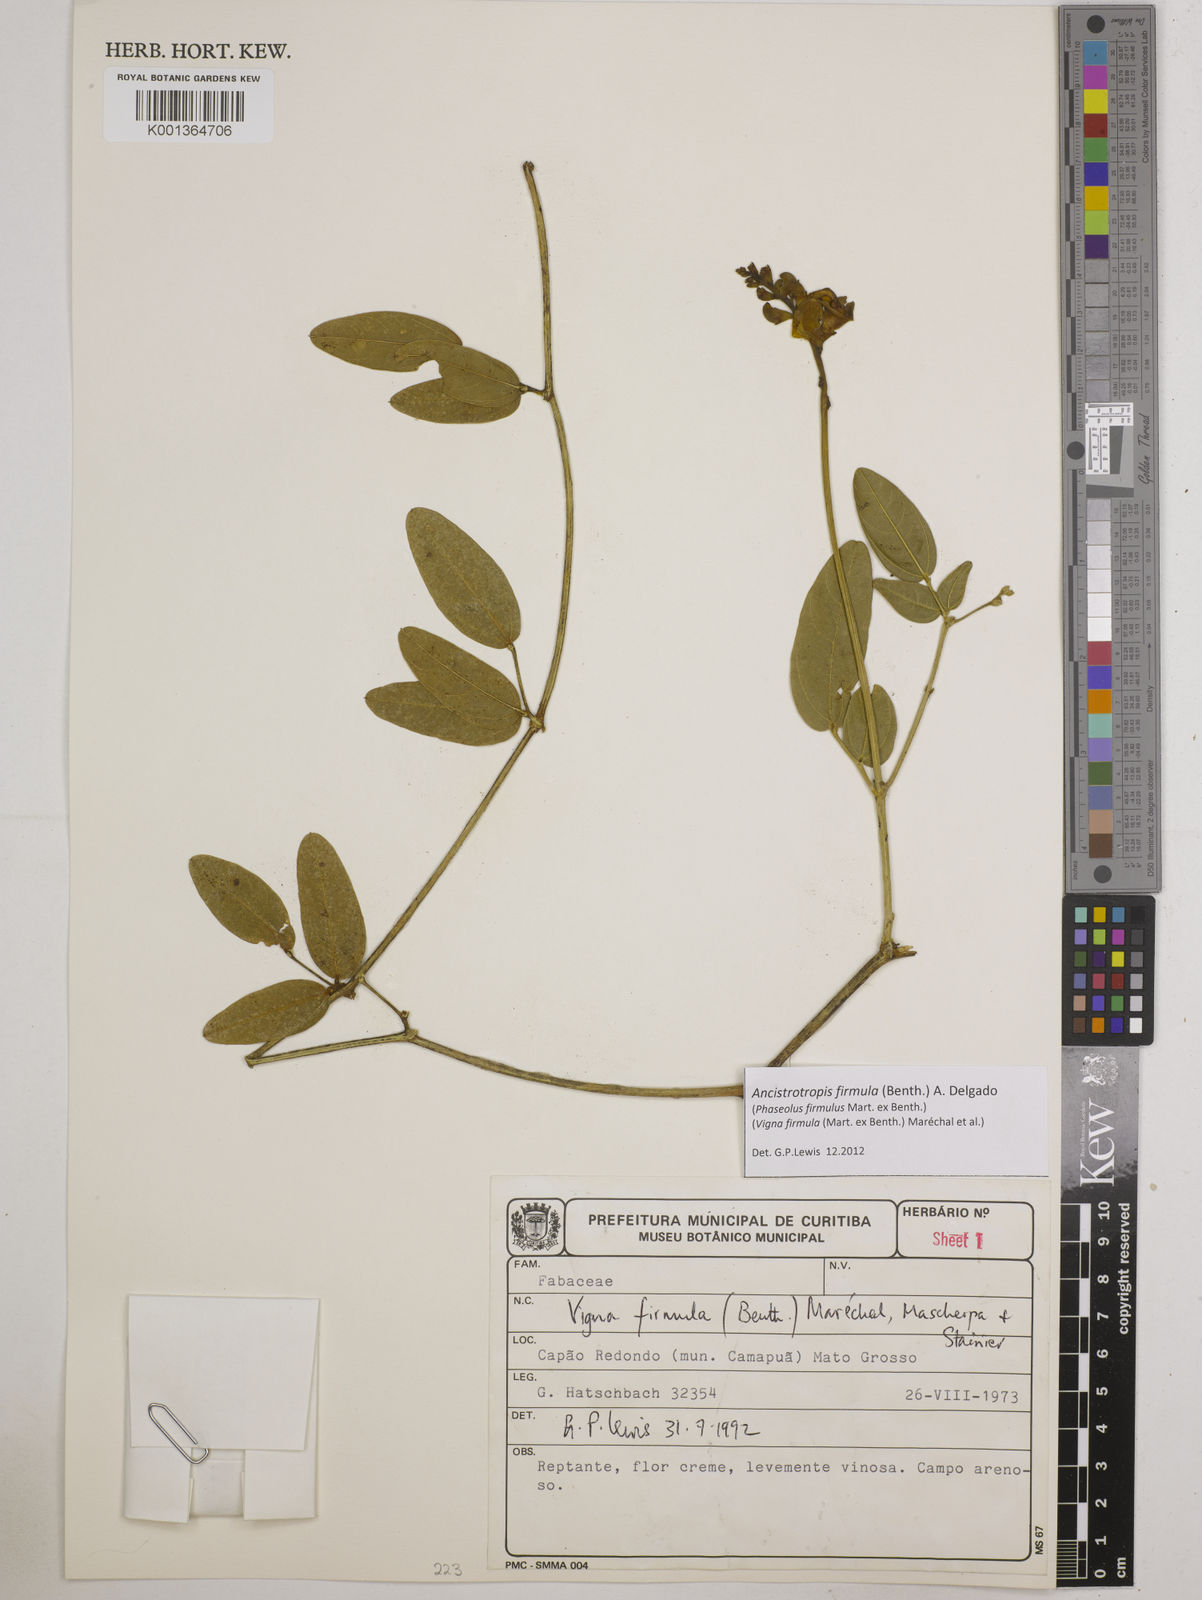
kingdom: Plantae
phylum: Tracheophyta
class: Magnoliopsida
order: Fabales
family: Fabaceae
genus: Ancistrotropis
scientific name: Ancistrotropis firmula
